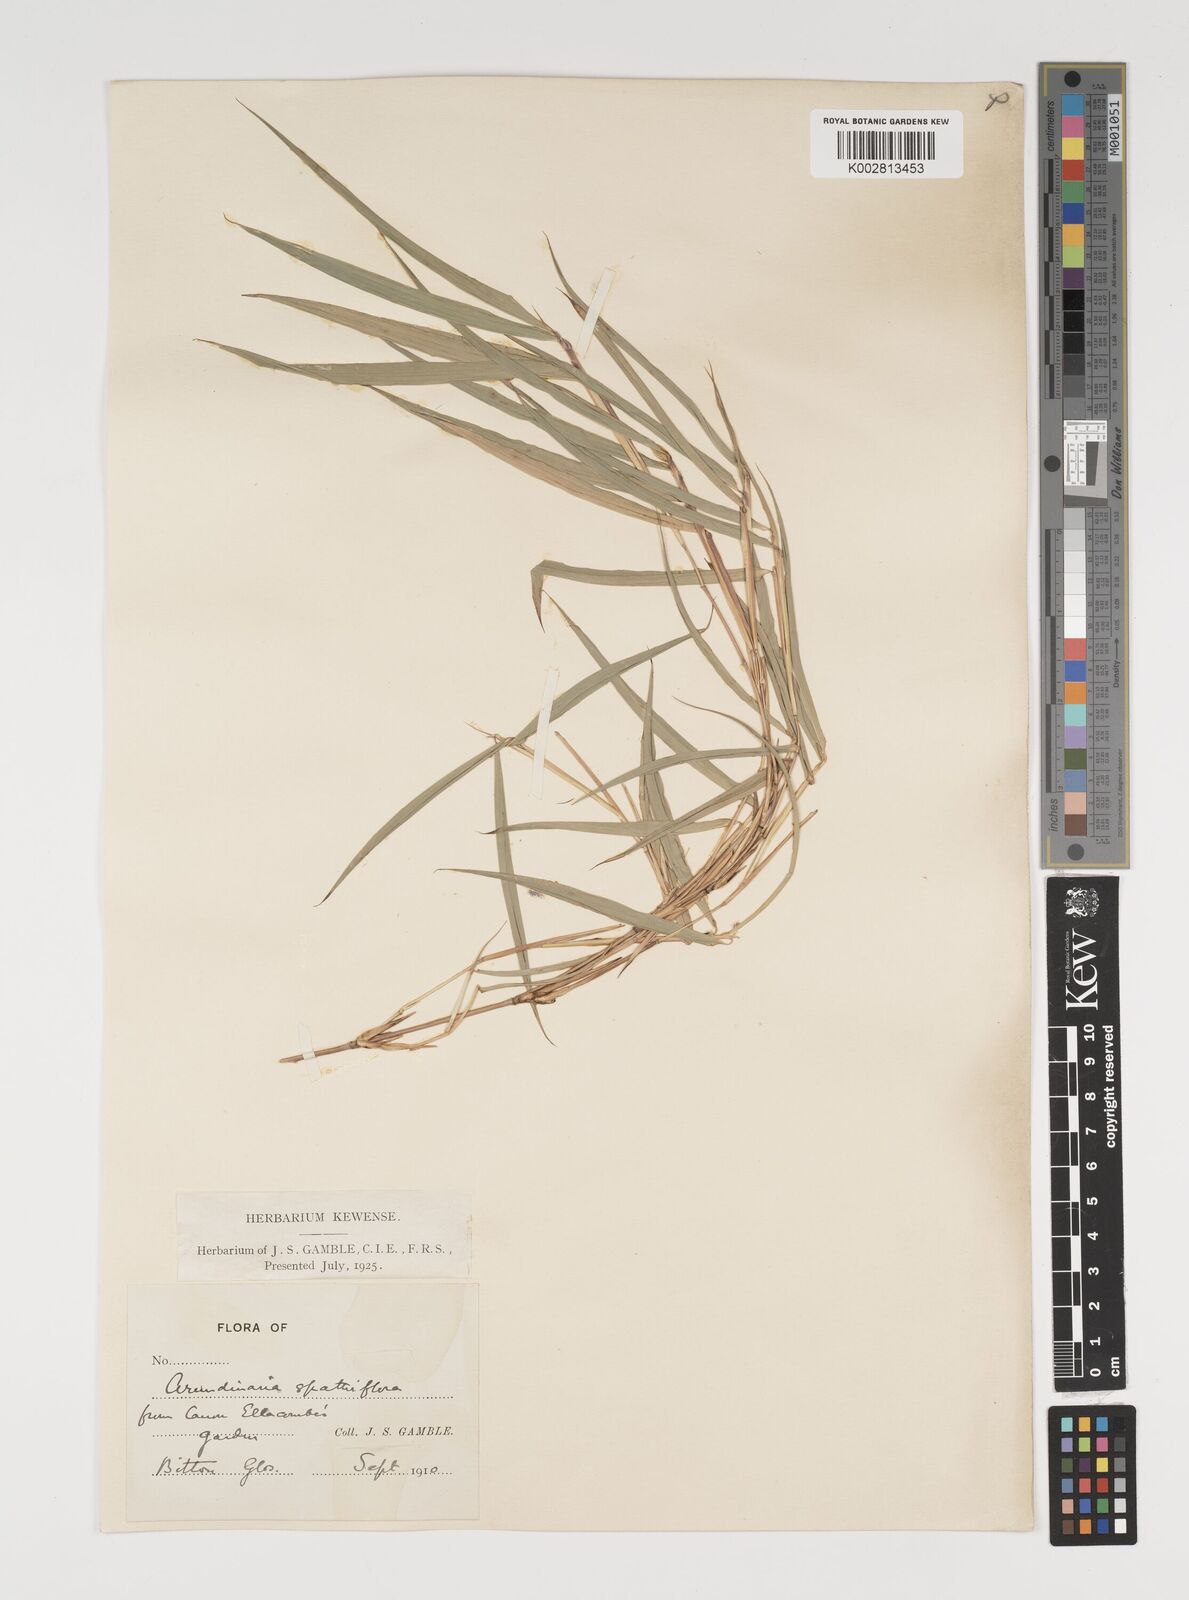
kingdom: Plantae
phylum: Tracheophyta
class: Liliopsida
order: Poales
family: Poaceae
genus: Thamnocalamus
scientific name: Thamnocalamus spathiflorus
